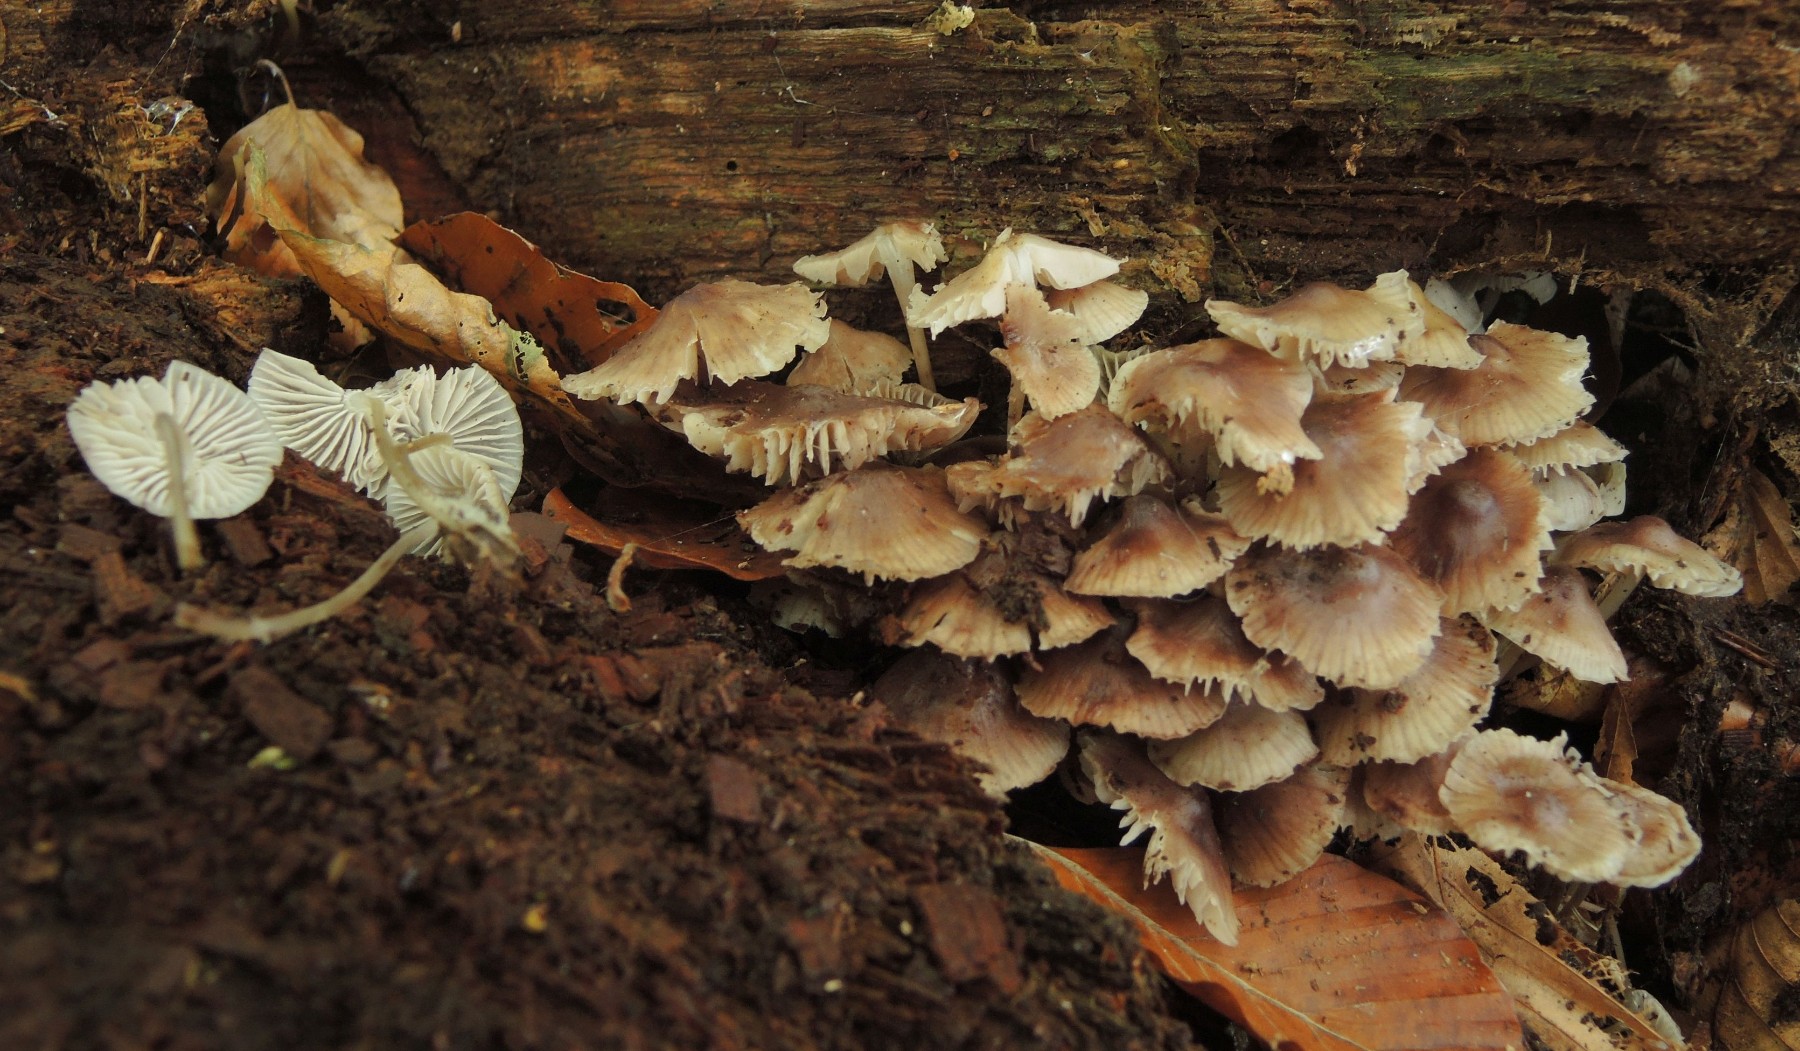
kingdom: Fungi
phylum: Basidiomycota
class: Agaricomycetes
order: Agaricales
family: Mycenaceae
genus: Mycena
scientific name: Mycena maculata
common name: rødplettet huesvamp
